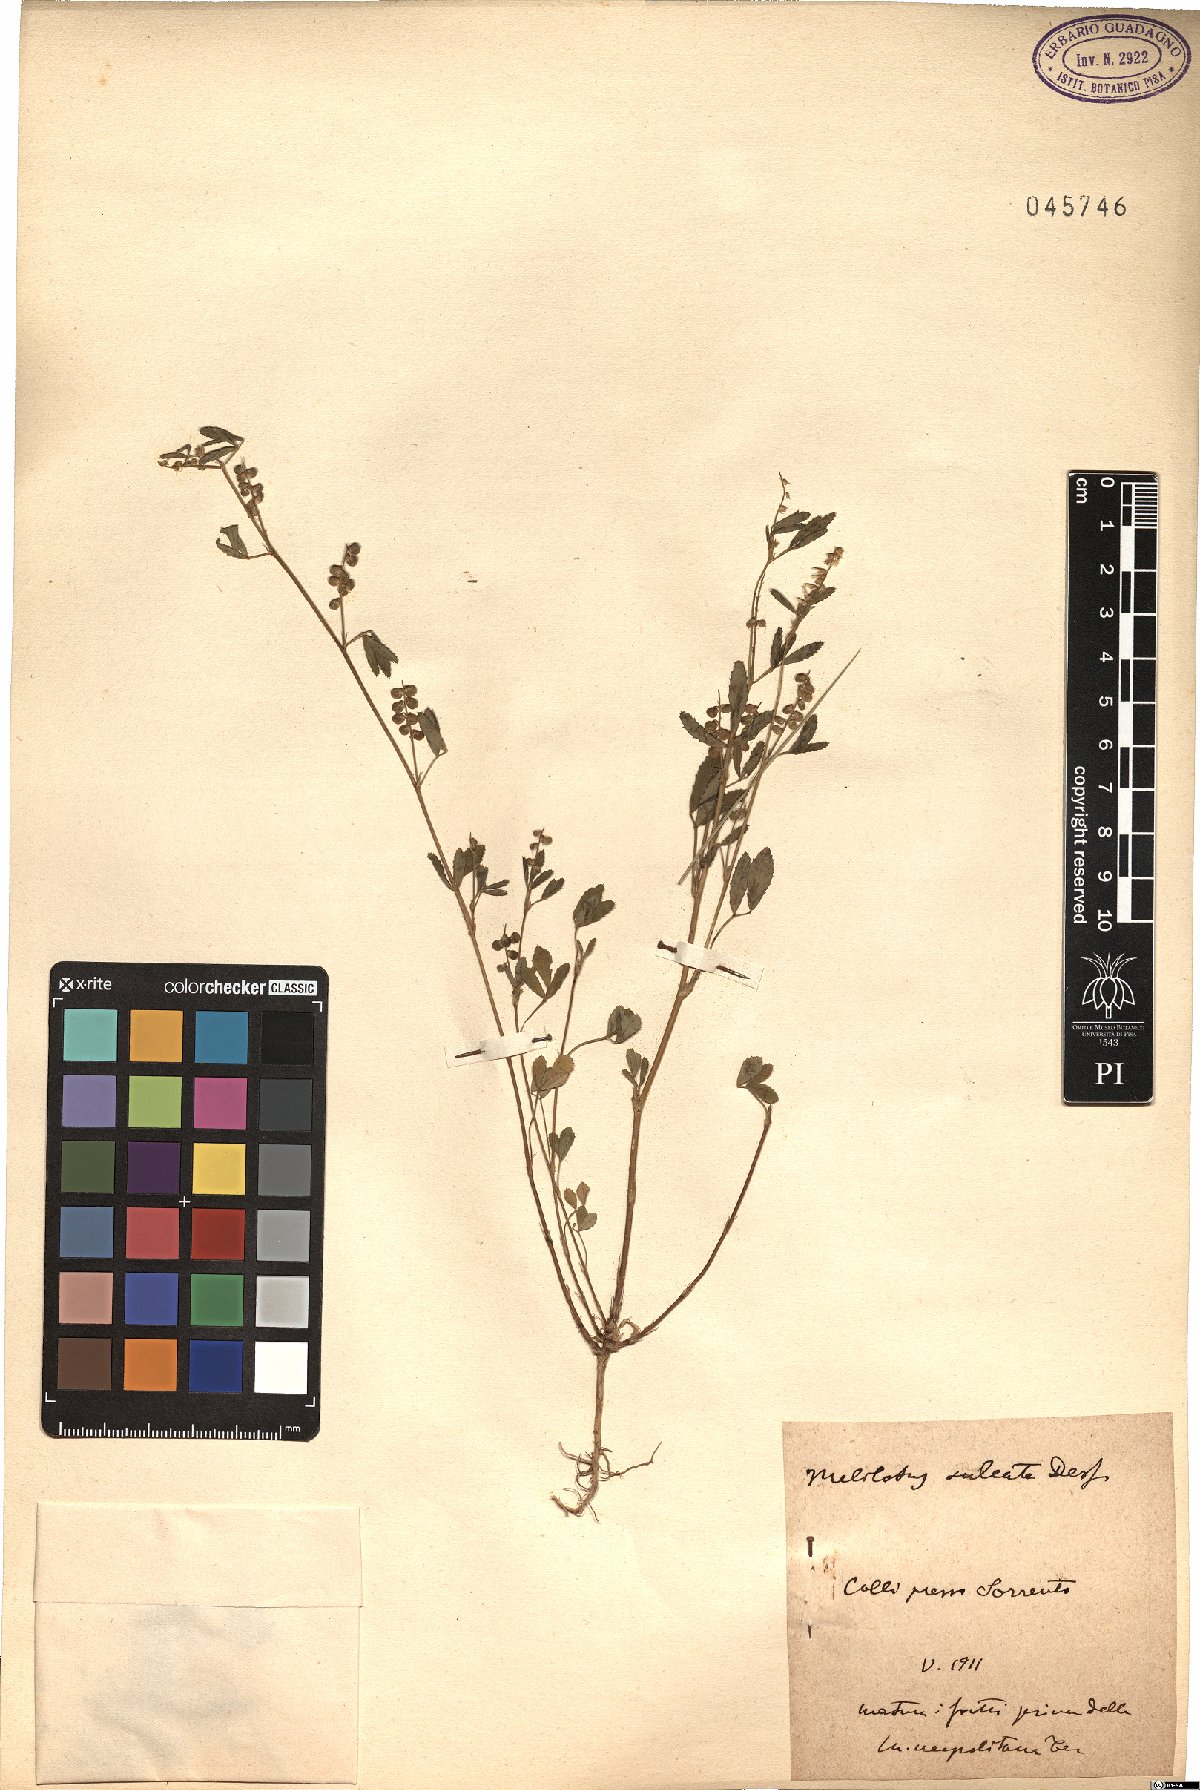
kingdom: Plantae
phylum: Tracheophyta
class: Magnoliopsida
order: Fabales
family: Fabaceae
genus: Melilotus
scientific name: Melilotus sulcatus
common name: Furrowed melilot
